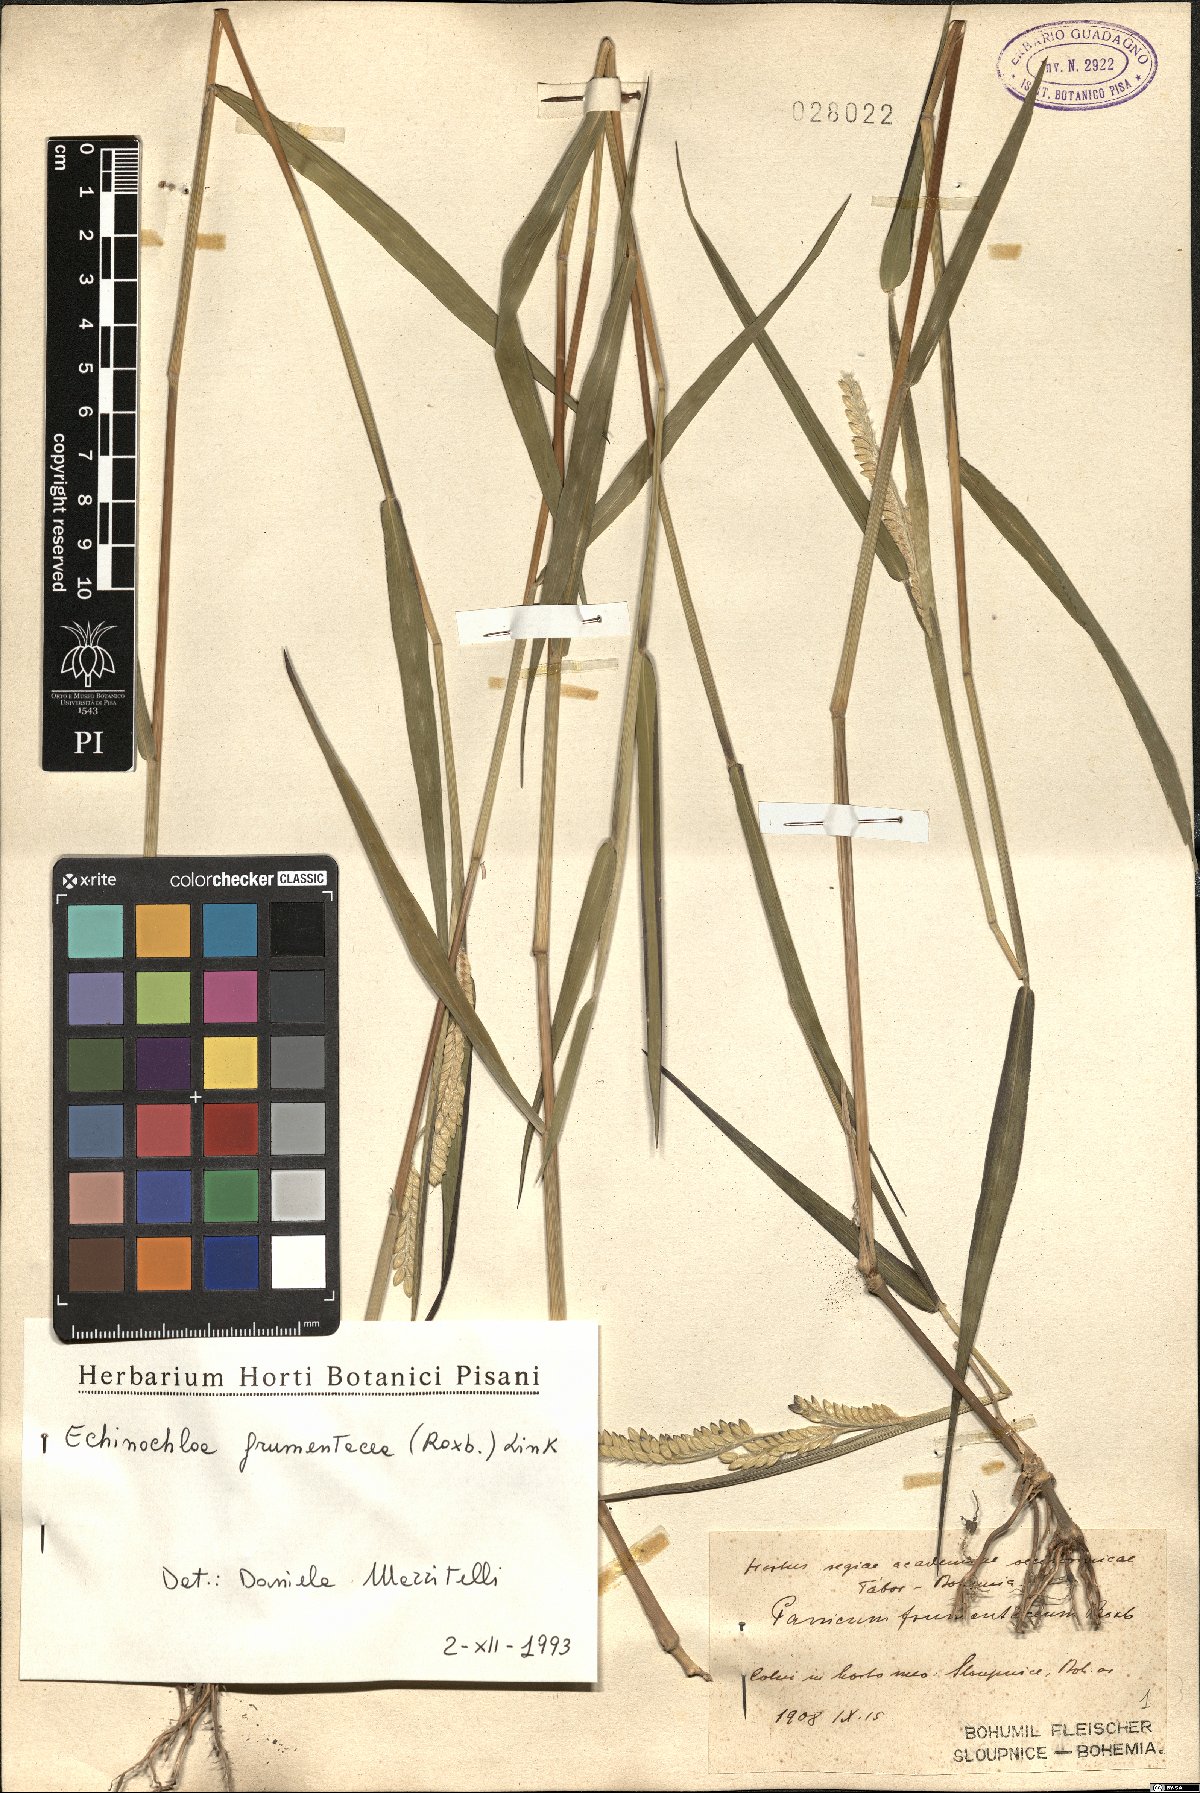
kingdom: Plantae
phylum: Tracheophyta
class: Liliopsida
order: Poales
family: Poaceae
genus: Echinochloa
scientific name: Echinochloa frumentacea
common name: Billion-dollar grass
